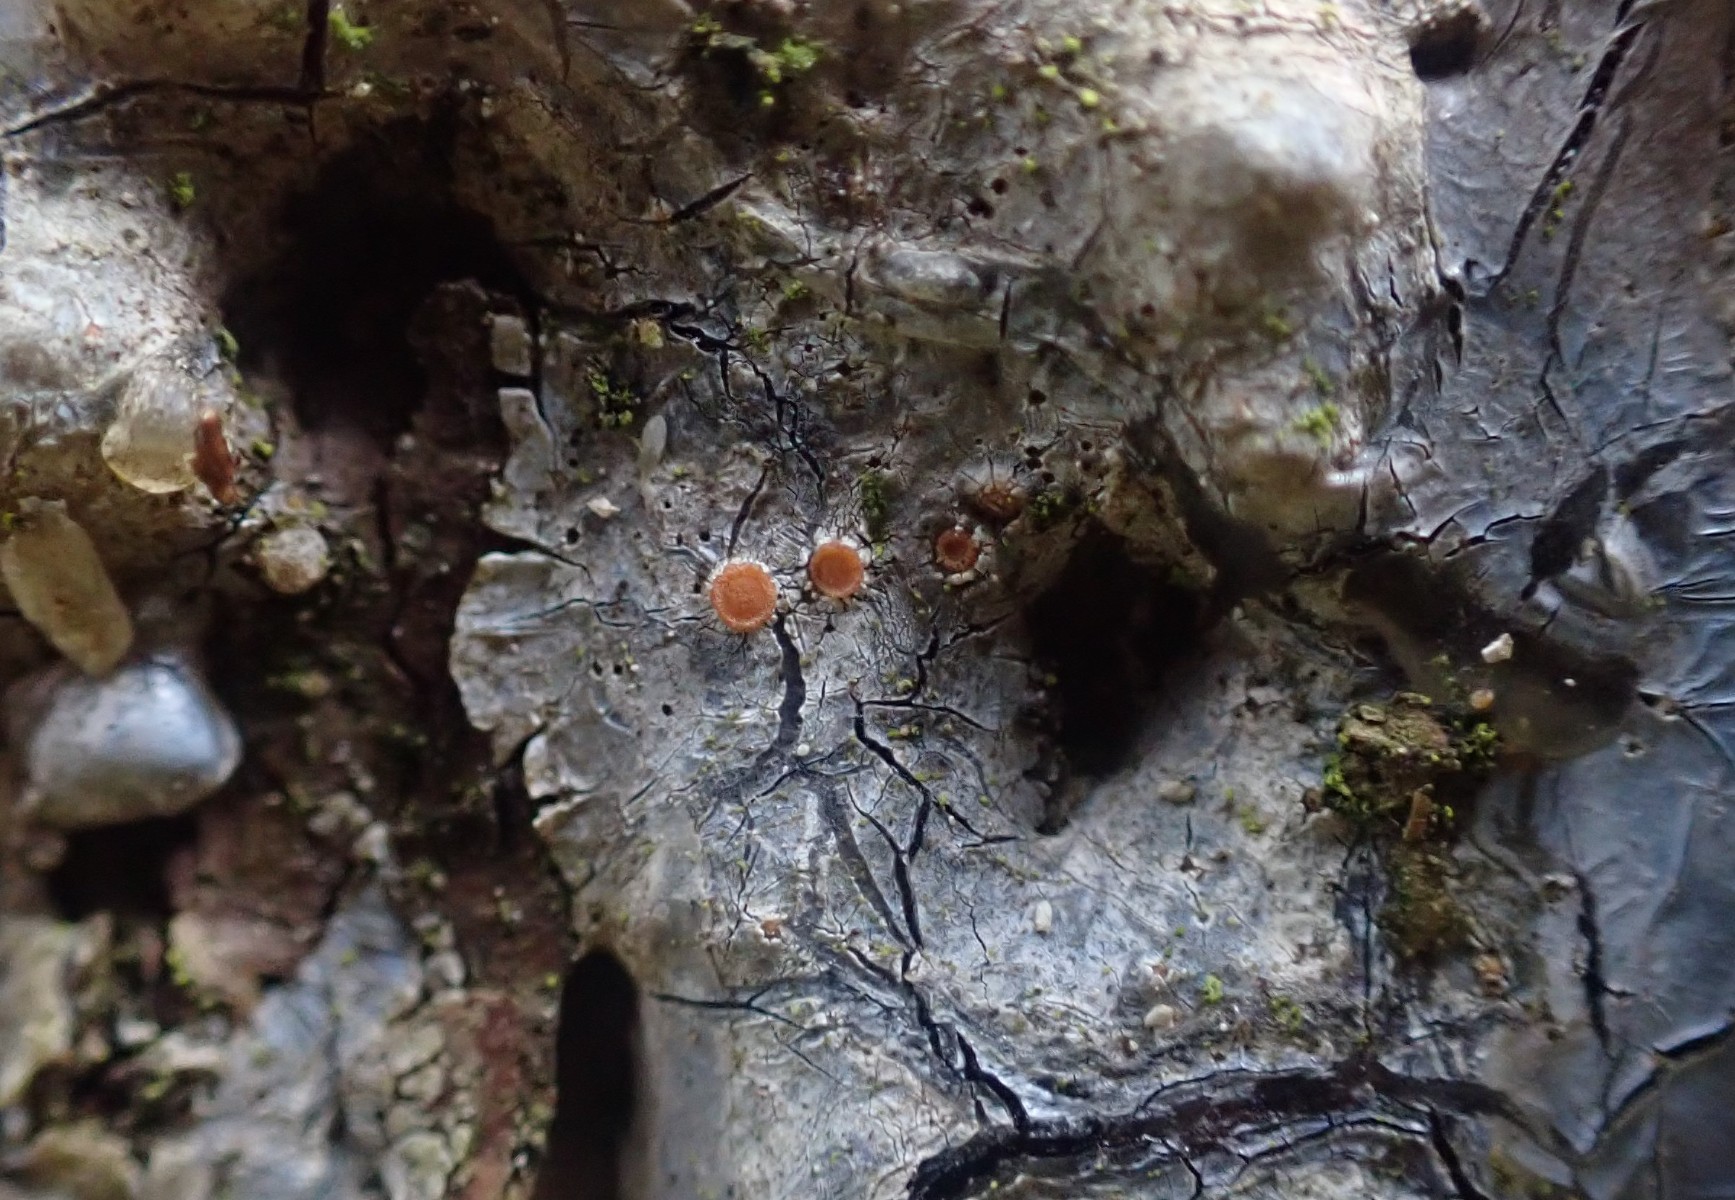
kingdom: Fungi
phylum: Ascomycota
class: Sareomycetes
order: Sareales
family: Sareaceae
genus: Sarea
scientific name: Sarea resinae
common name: orangegul harpiksskive
